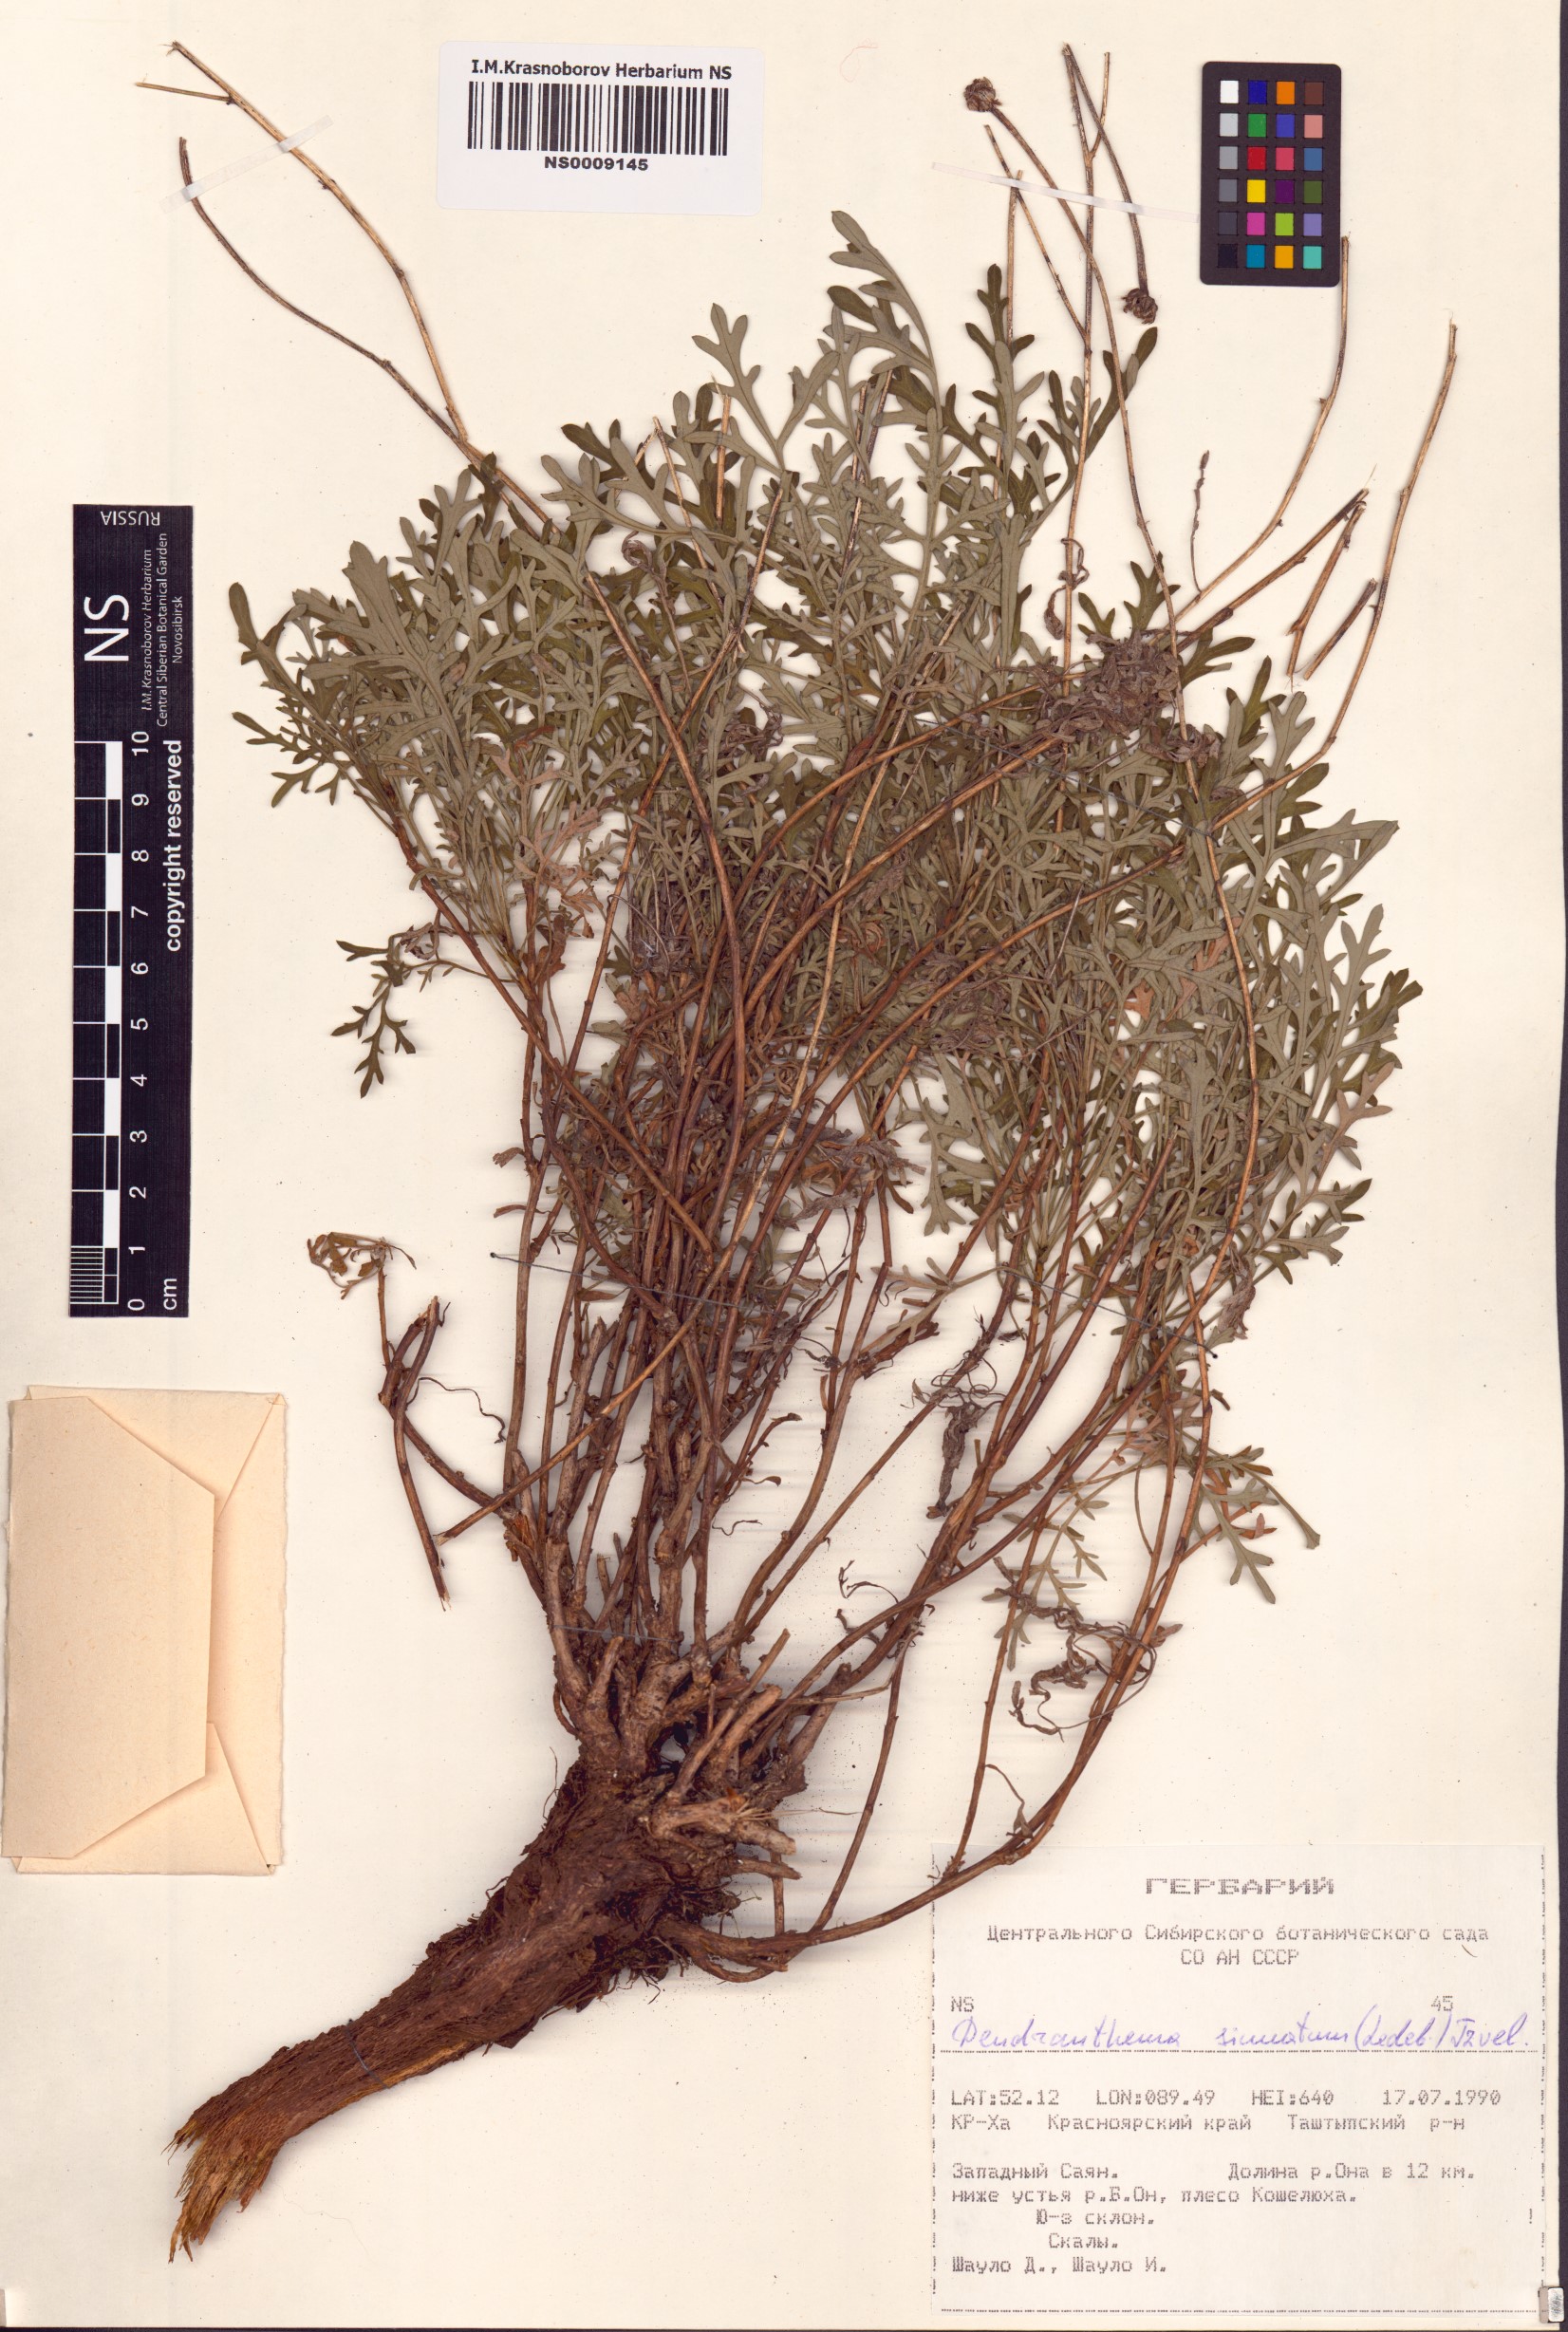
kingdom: Plantae
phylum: Tracheophyta
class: Magnoliopsida
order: Asterales
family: Asteraceae
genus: Chrysanthemum
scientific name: Chrysanthemum sinuatum
